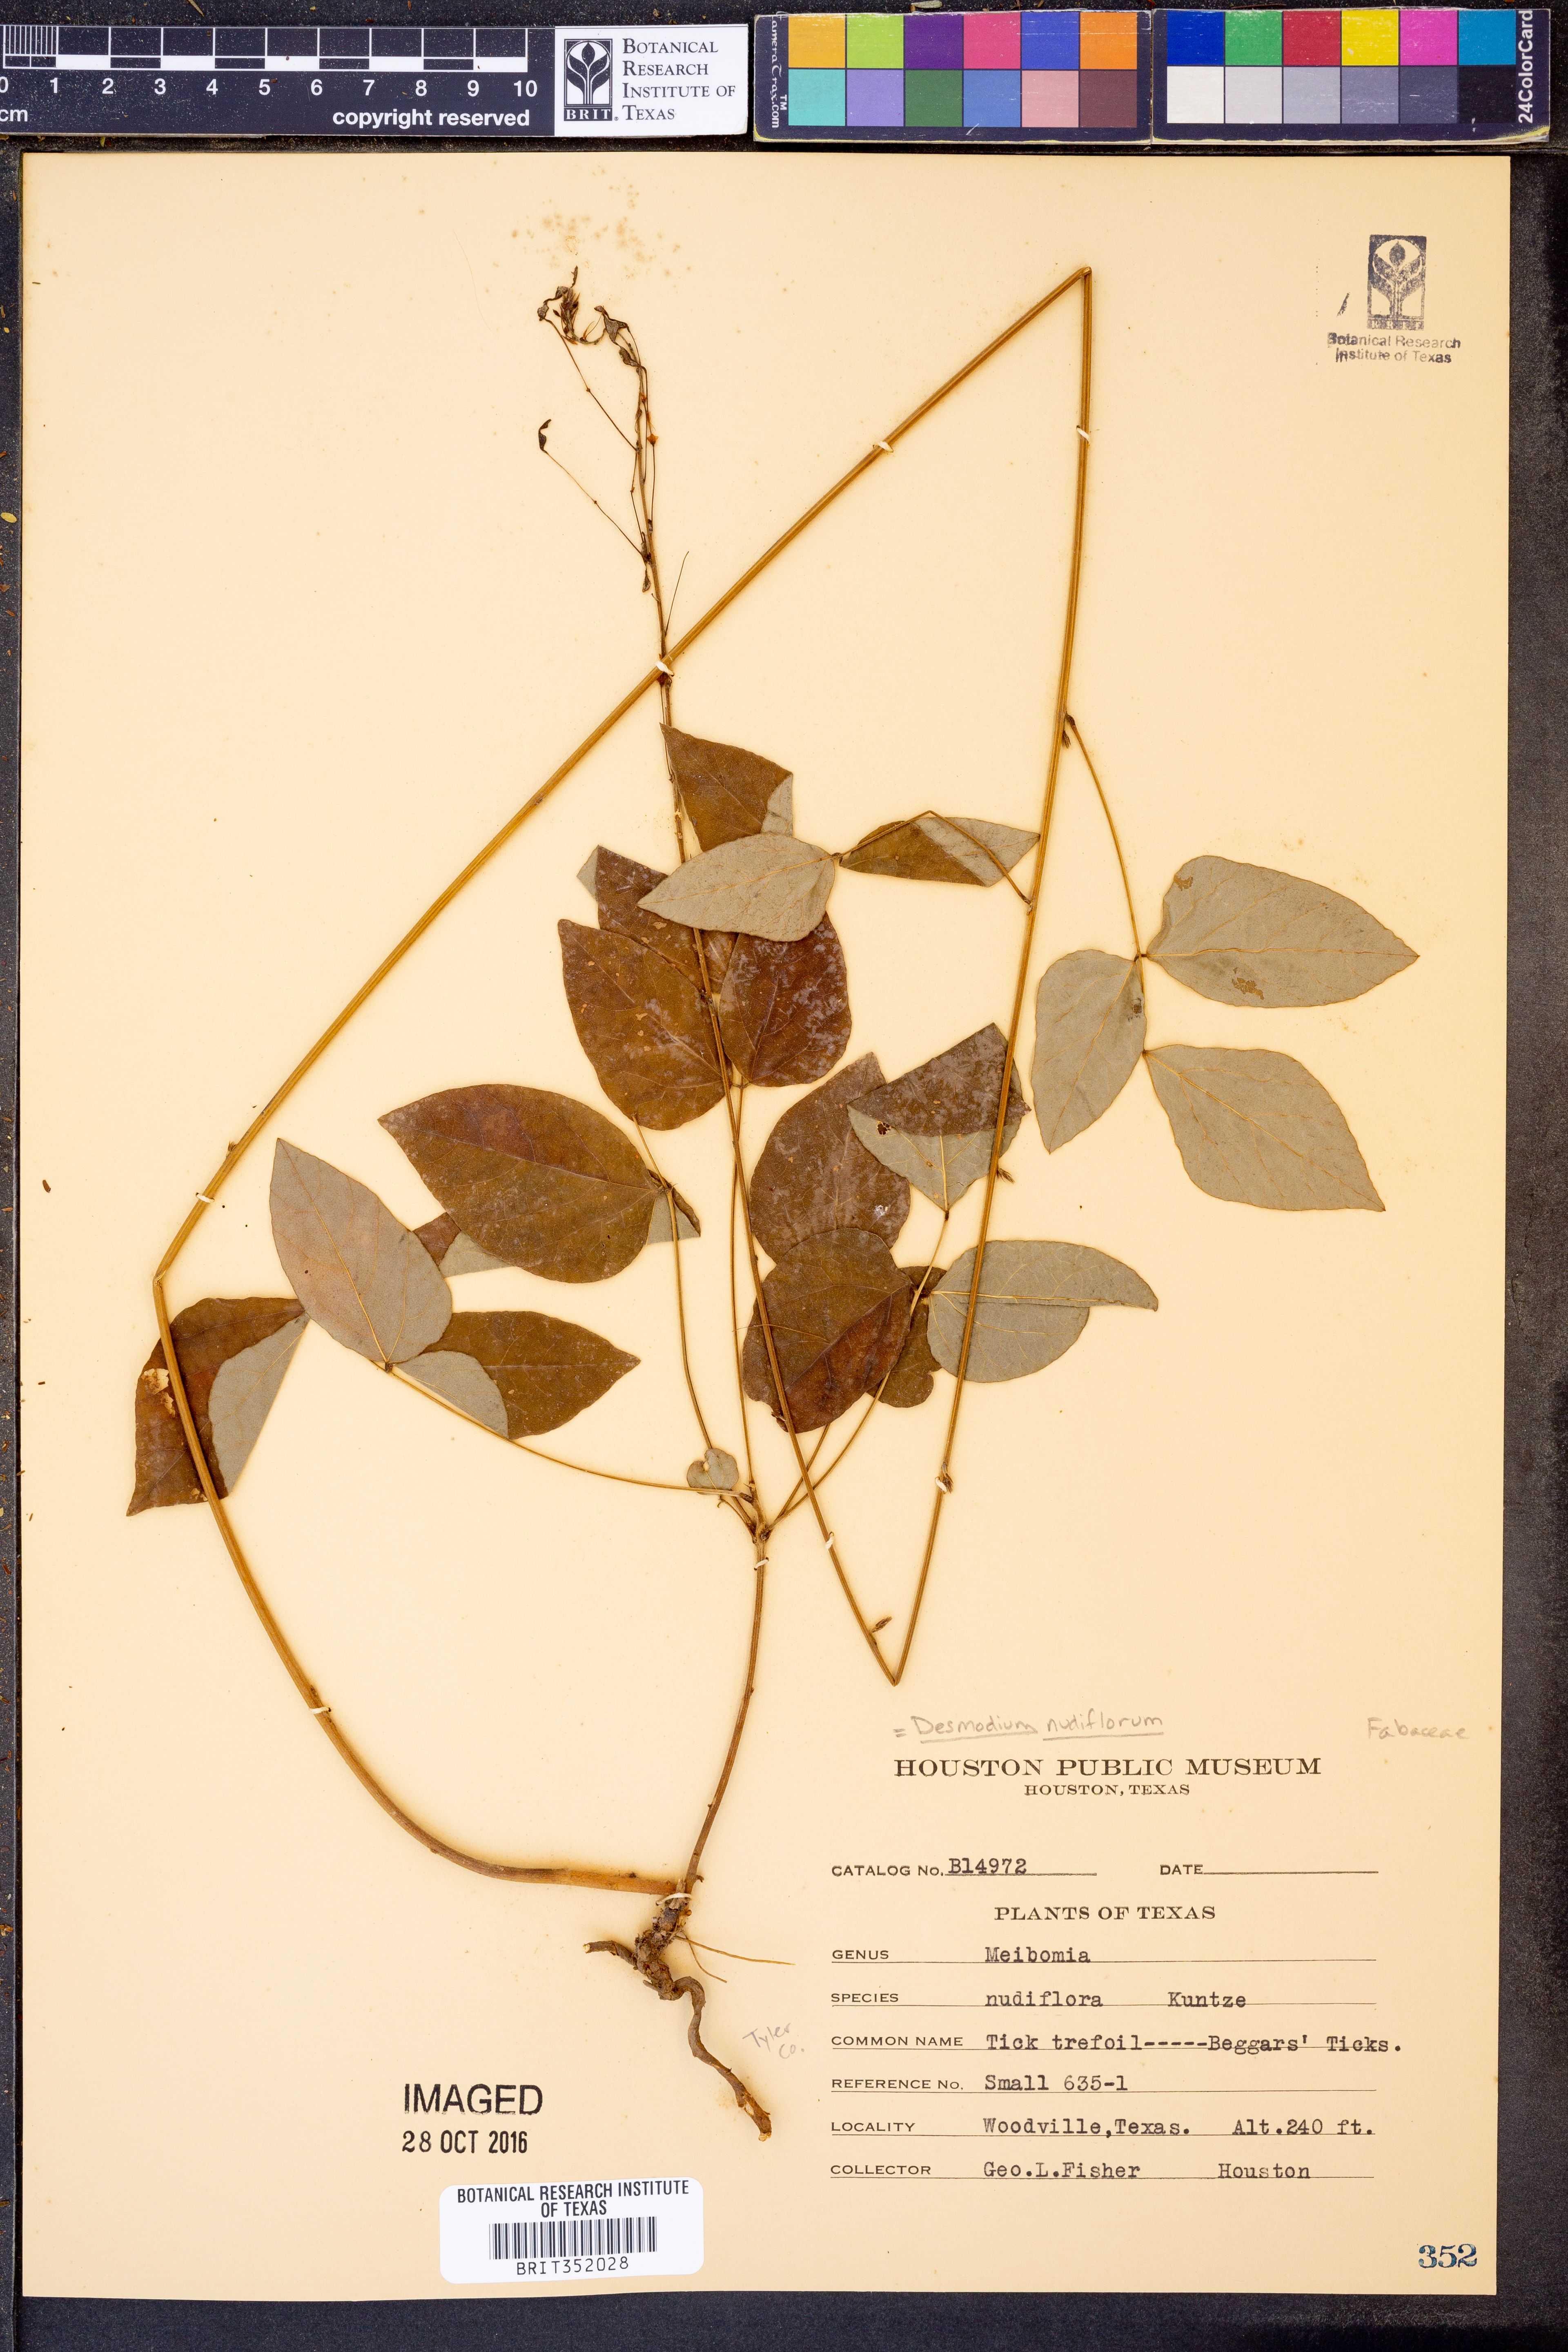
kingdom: Plantae
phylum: Tracheophyta
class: Magnoliopsida
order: Fabales
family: Fabaceae
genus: Hylodesmum
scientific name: Hylodesmum nudiflorum
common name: Bare-stemmed tick-trefoil
